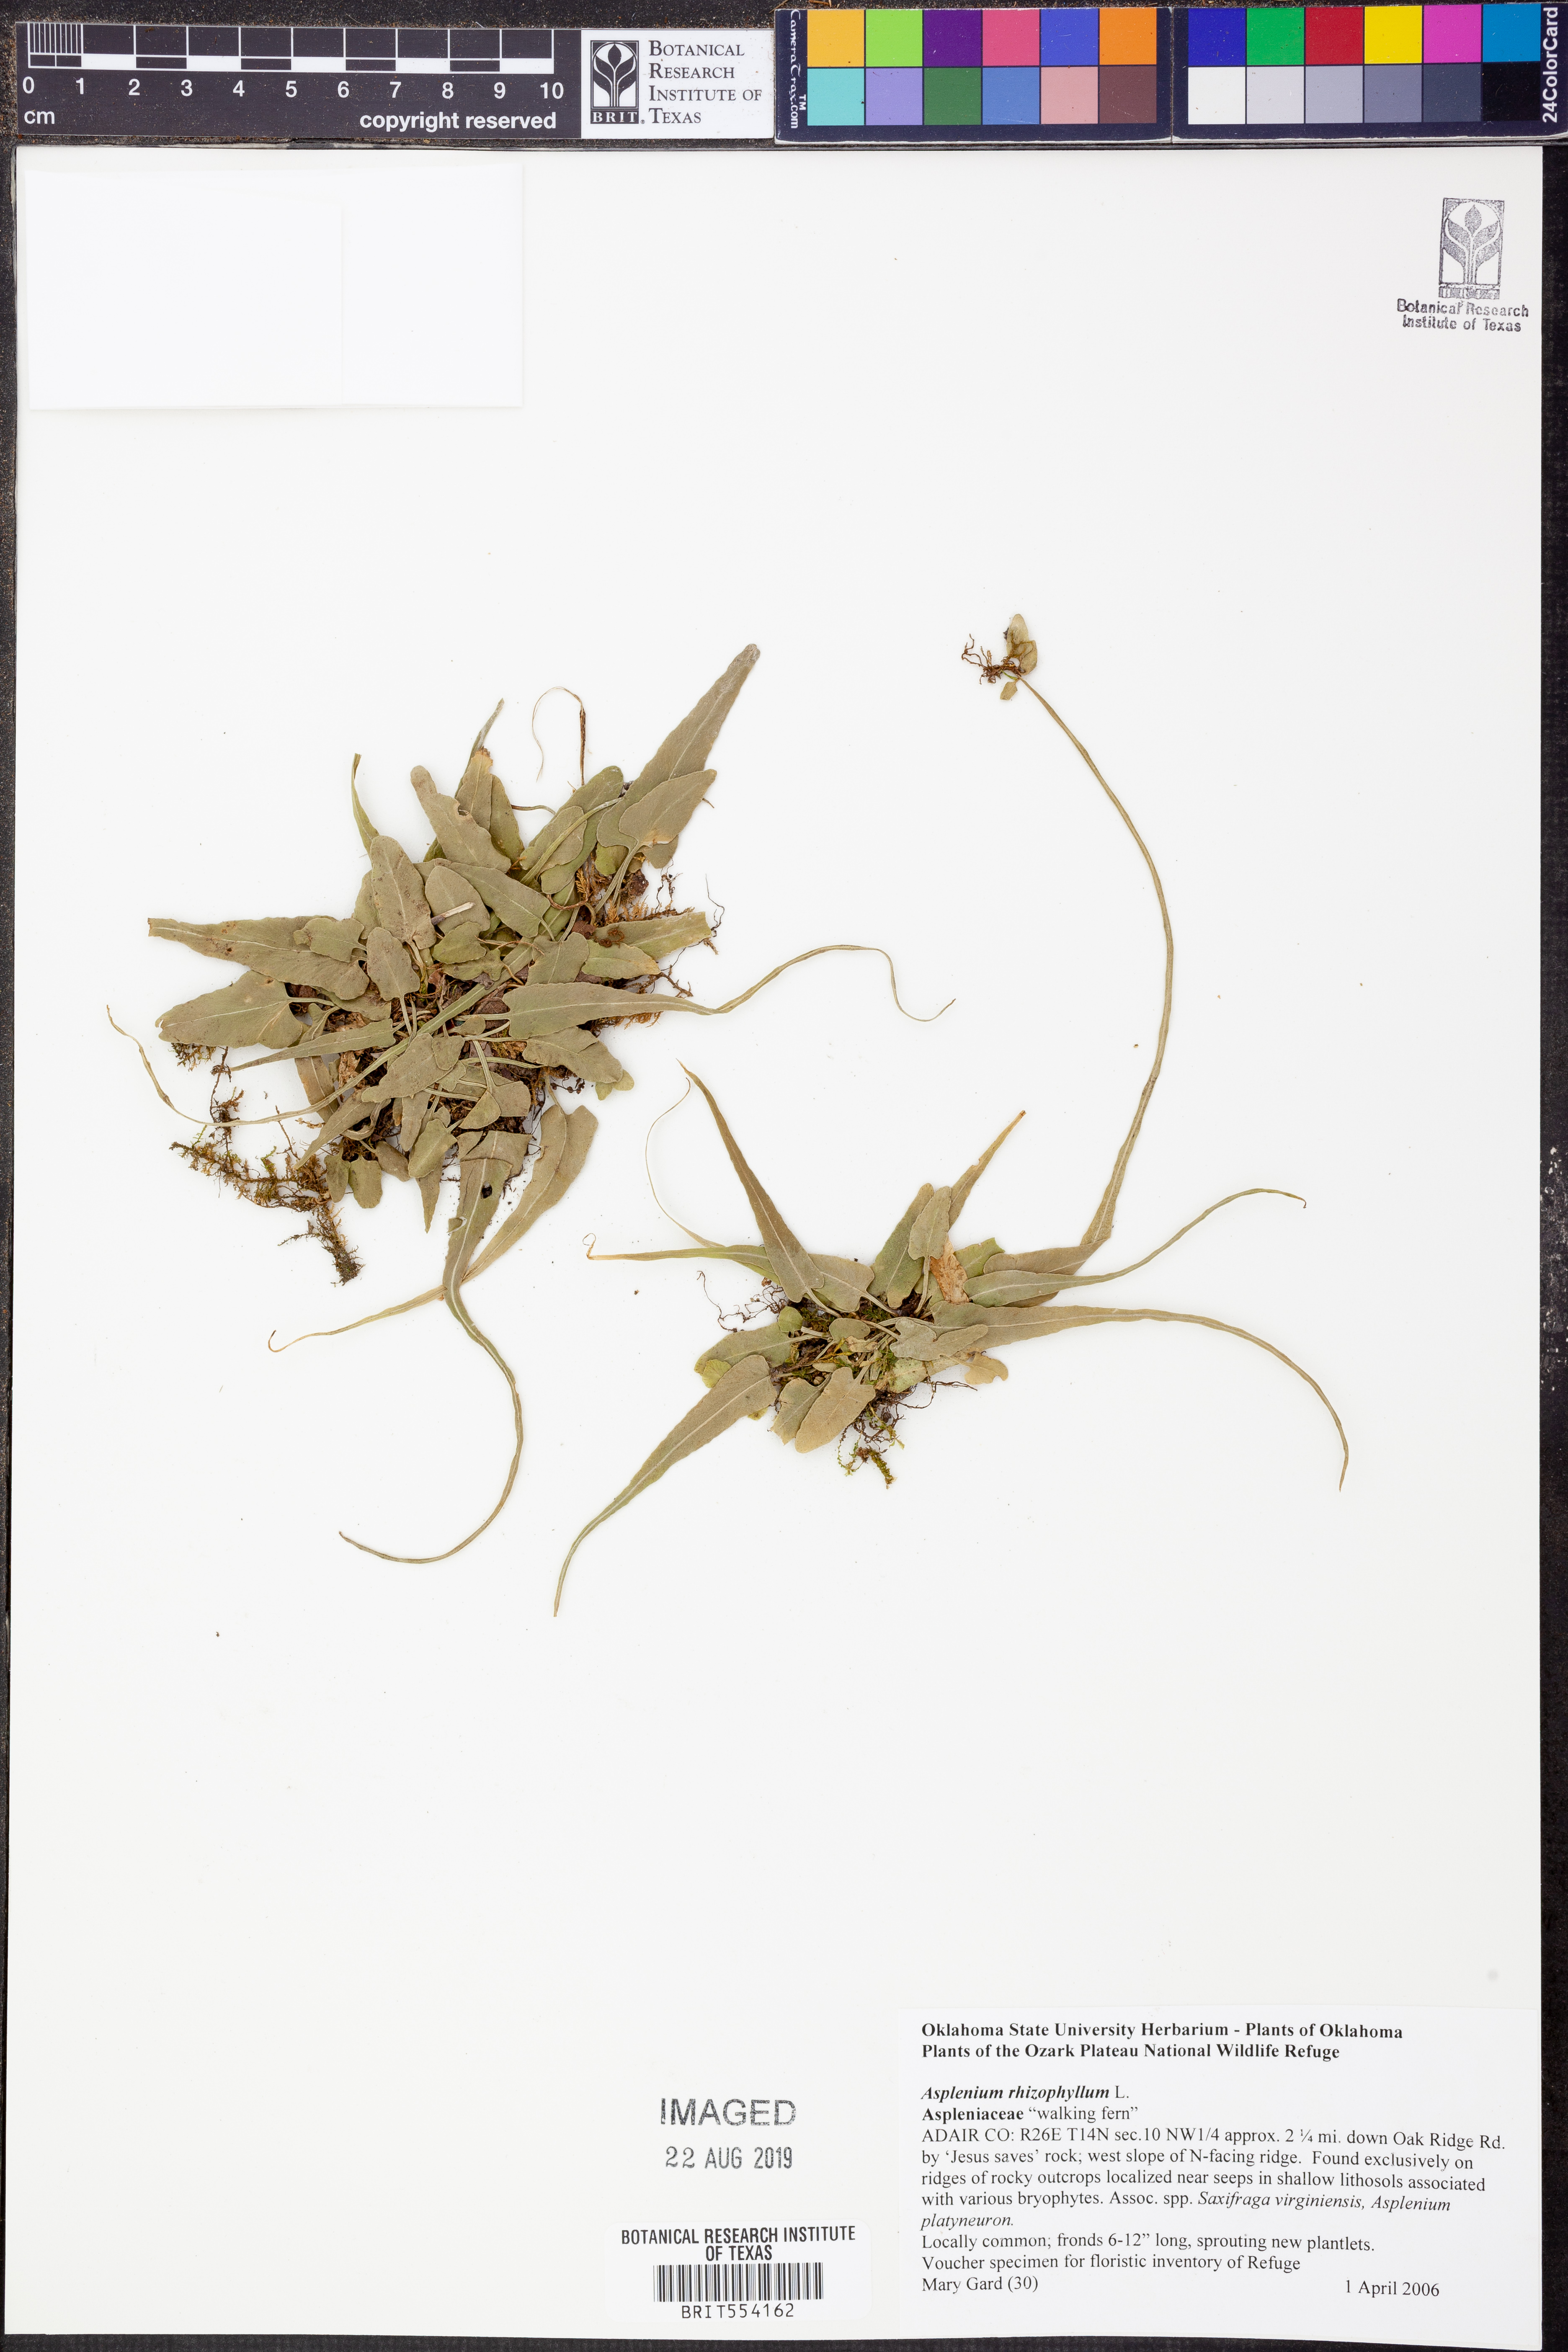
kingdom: Plantae
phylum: Tracheophyta
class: Polypodiopsida
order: Polypodiales
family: Aspleniaceae
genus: Asplenium
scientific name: Asplenium rhizophyllum
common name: Walking fern
